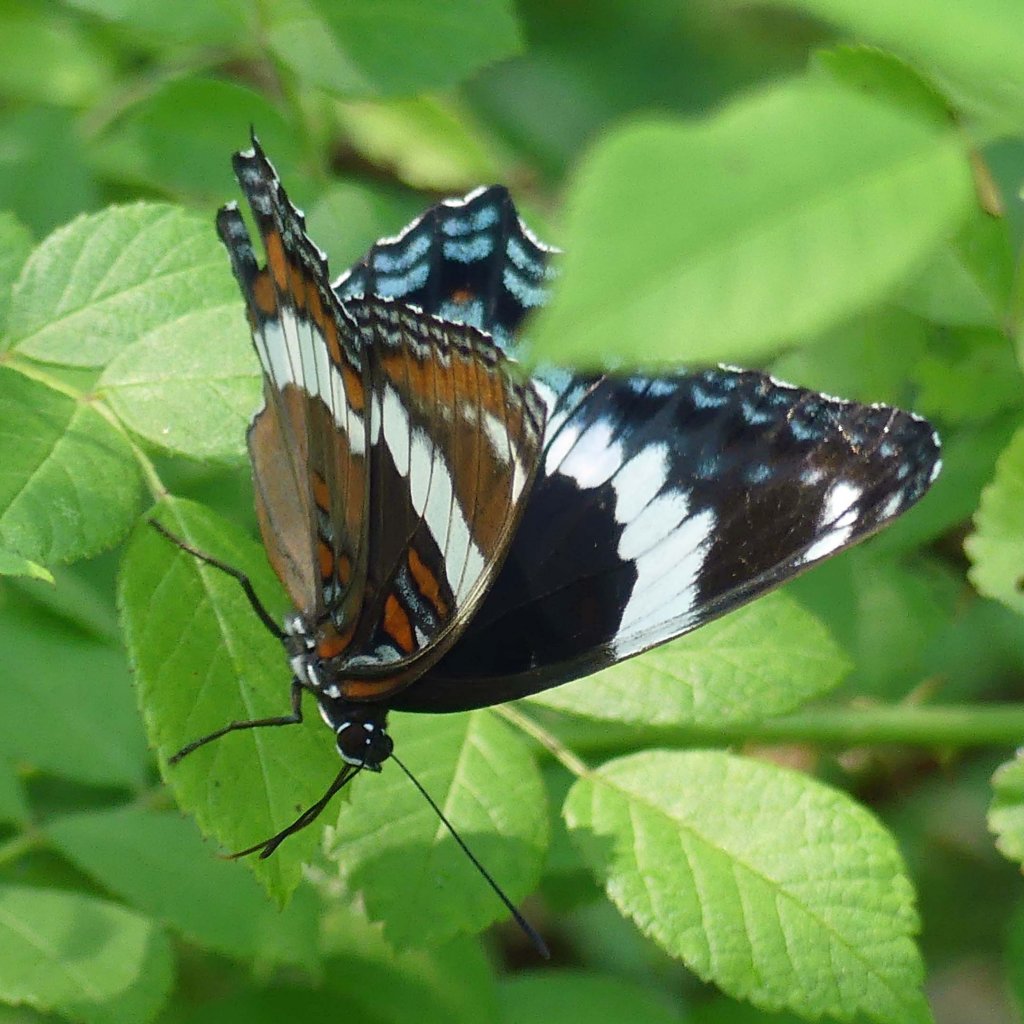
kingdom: Animalia
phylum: Arthropoda
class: Insecta
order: Lepidoptera
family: Nymphalidae
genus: Limenitis
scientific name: Limenitis arthemis
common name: Red-spotted Admiral
